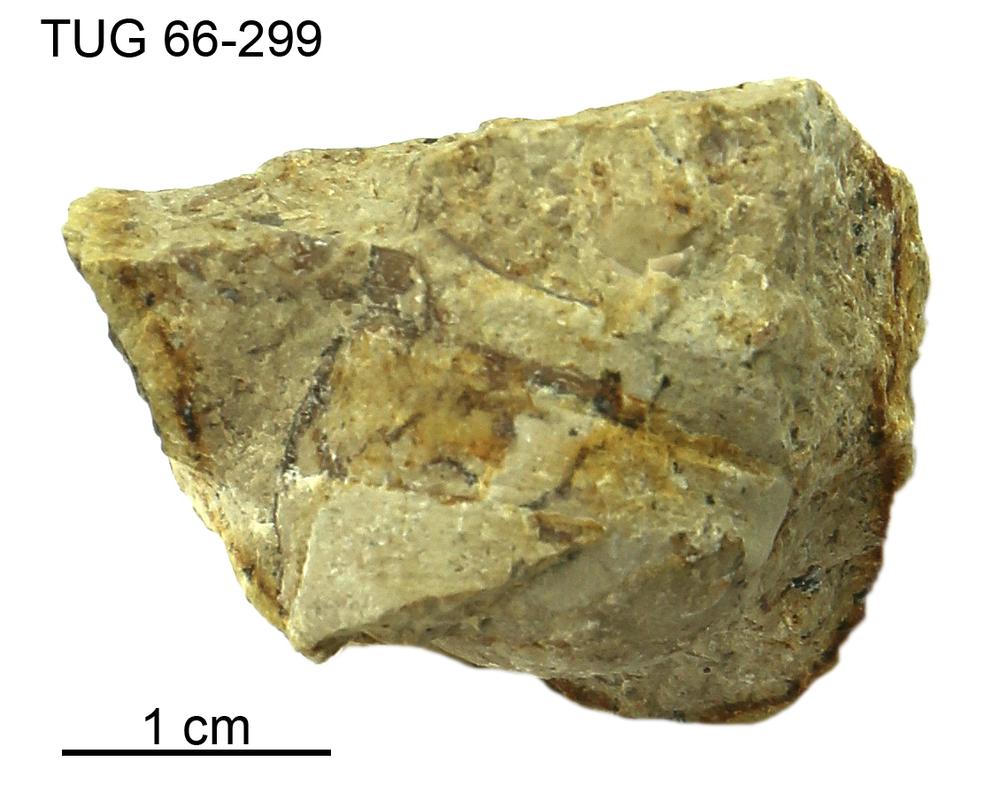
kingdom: Animalia
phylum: Mollusca
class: Cephalopoda
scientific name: Cephalopoda
